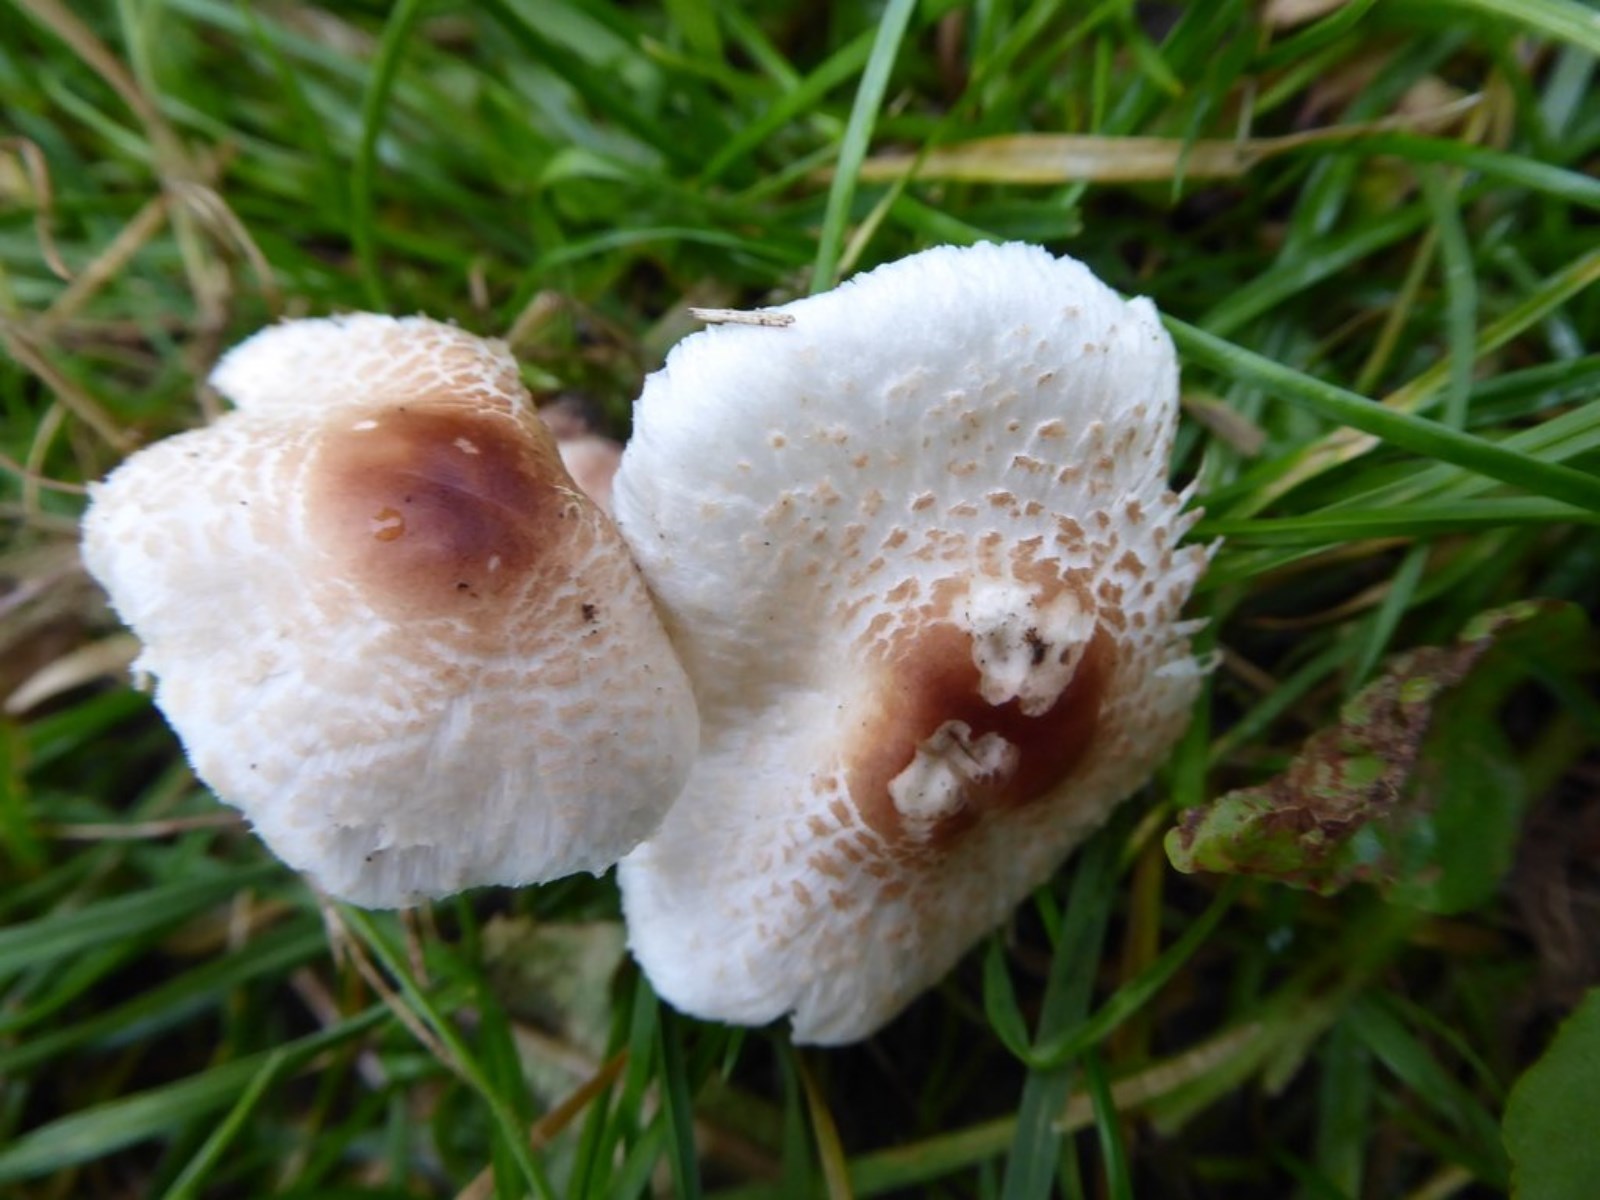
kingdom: Fungi
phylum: Basidiomycota
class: Agaricomycetes
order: Agaricales
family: Agaricaceae
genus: Lepiota
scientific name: Lepiota cristata
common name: stinkende parasolhat
